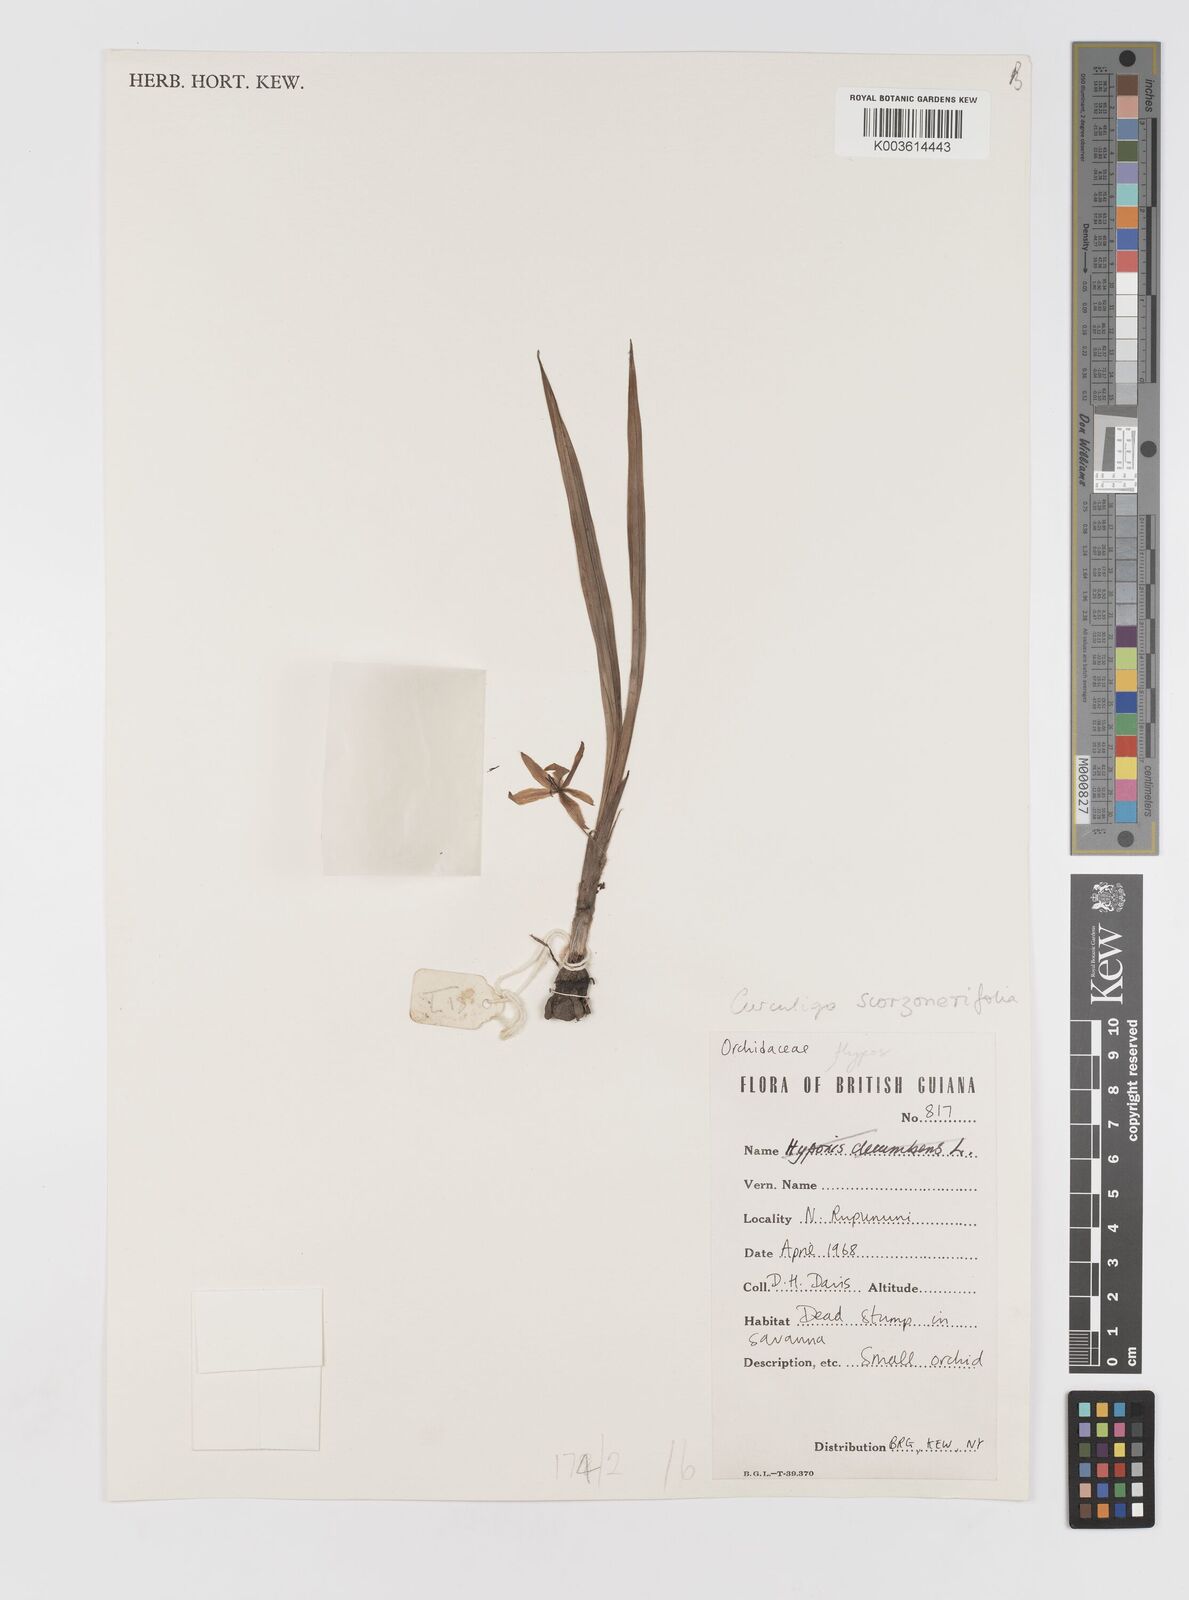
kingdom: Plantae
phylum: Tracheophyta
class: Liliopsida
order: Asparagales
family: Hypoxidaceae
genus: Curculigo
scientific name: Curculigo scorzonerifolia
